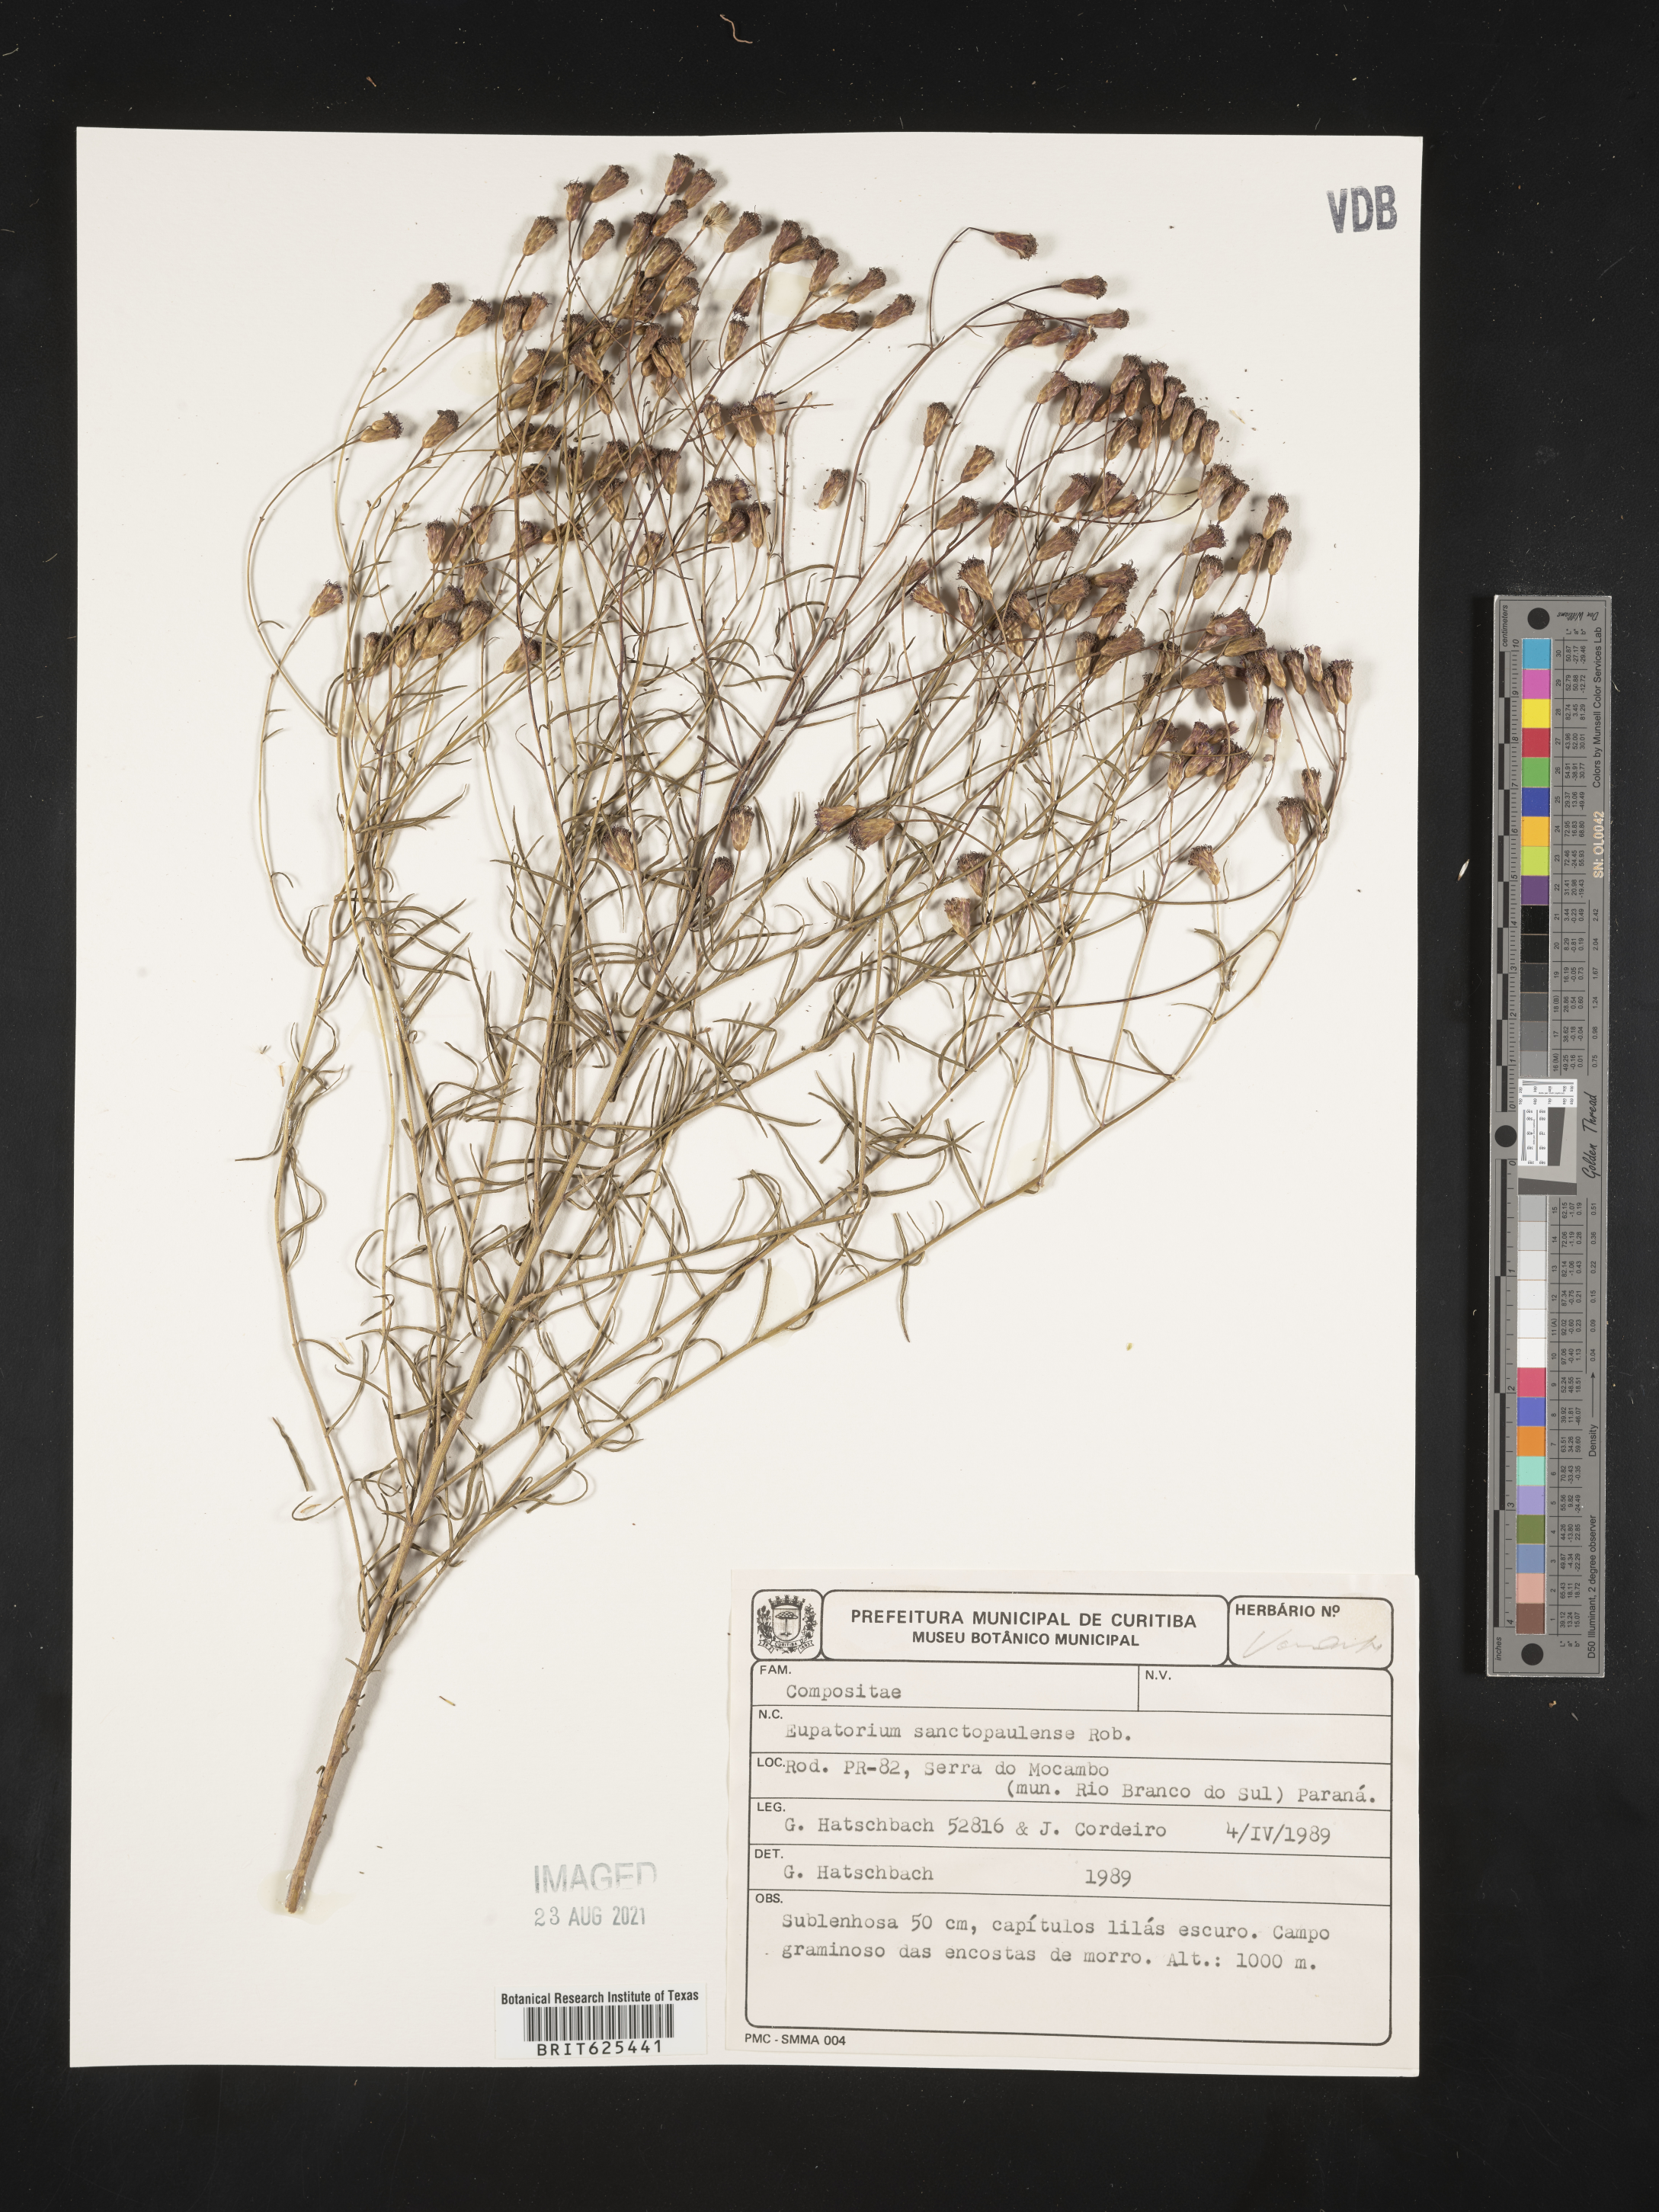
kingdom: Plantae
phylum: Tracheophyta
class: Magnoliopsida
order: Asterales
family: Asteraceae
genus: Praxelis
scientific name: Praxelis sanctopaulensis
